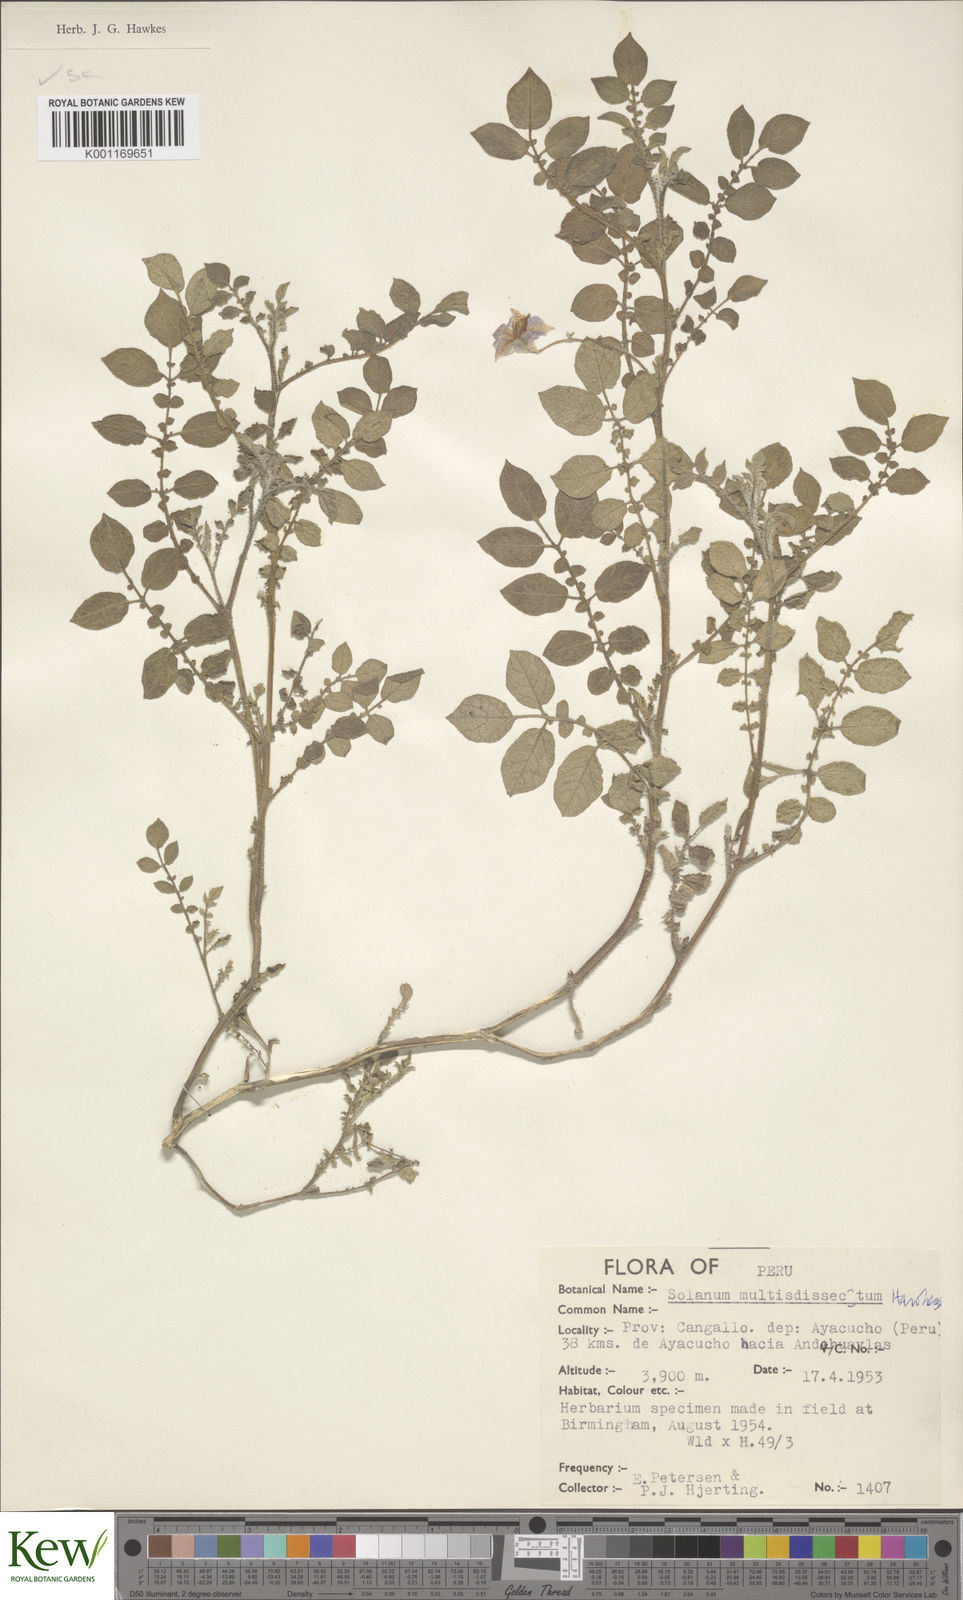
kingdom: Plantae
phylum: Tracheophyta
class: Magnoliopsida
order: Solanales
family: Solanaceae
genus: Solanum
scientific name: Solanum candolleanum
